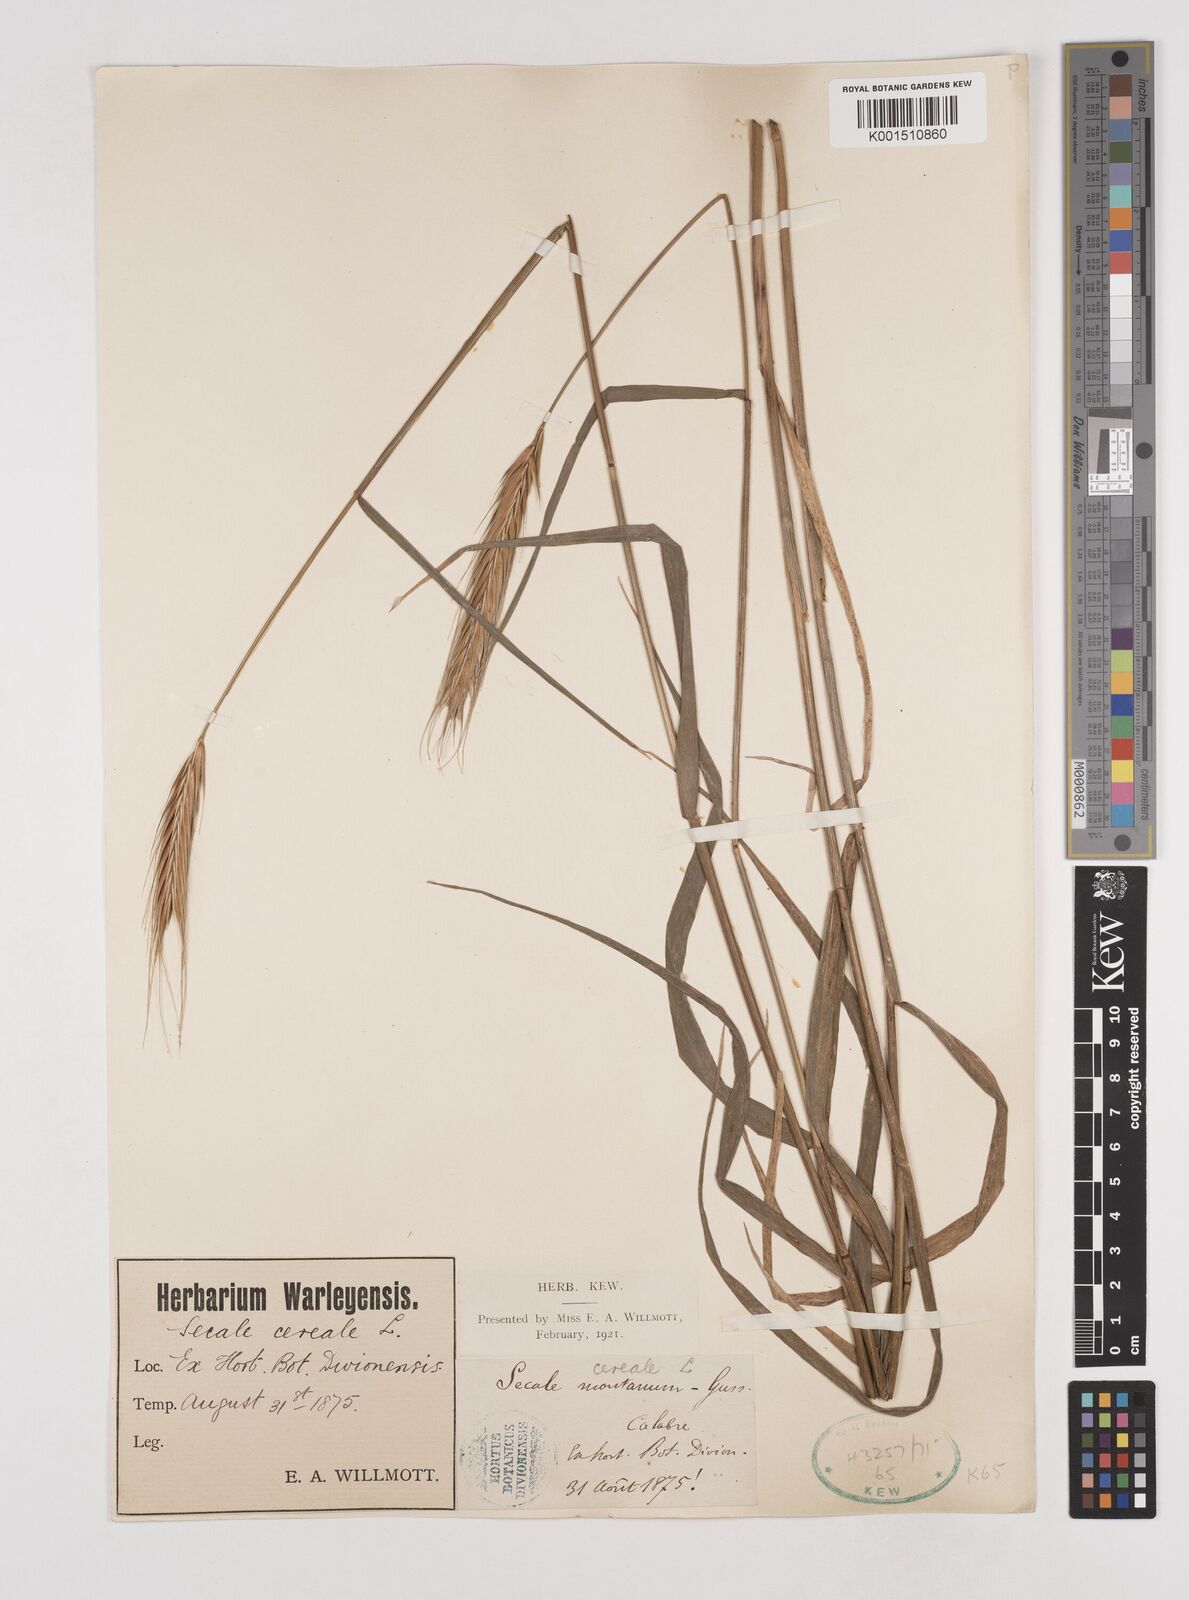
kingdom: Plantae
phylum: Tracheophyta
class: Liliopsida
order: Poales
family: Poaceae
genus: Secale
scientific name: Secale strictum
